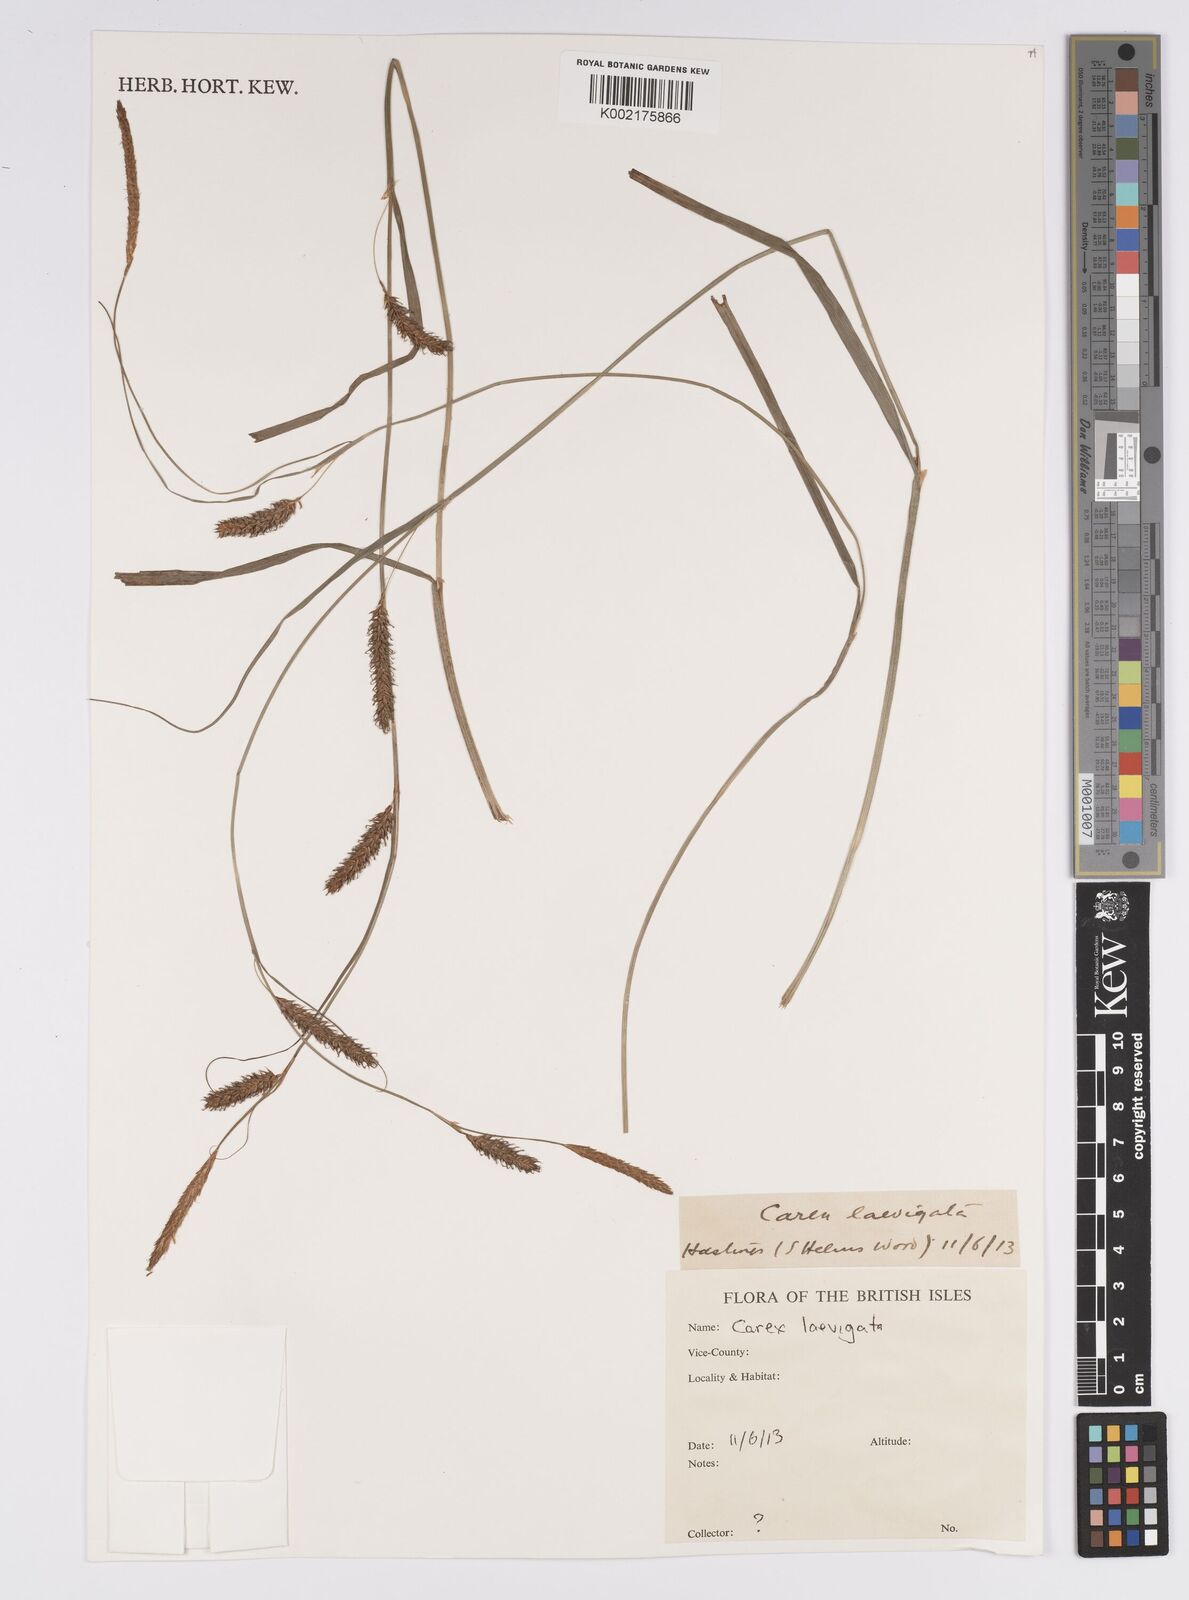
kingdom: Plantae
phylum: Tracheophyta
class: Liliopsida
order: Poales
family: Cyperaceae
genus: Carex
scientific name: Carex laevigata
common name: Smooth-stalked sedge
